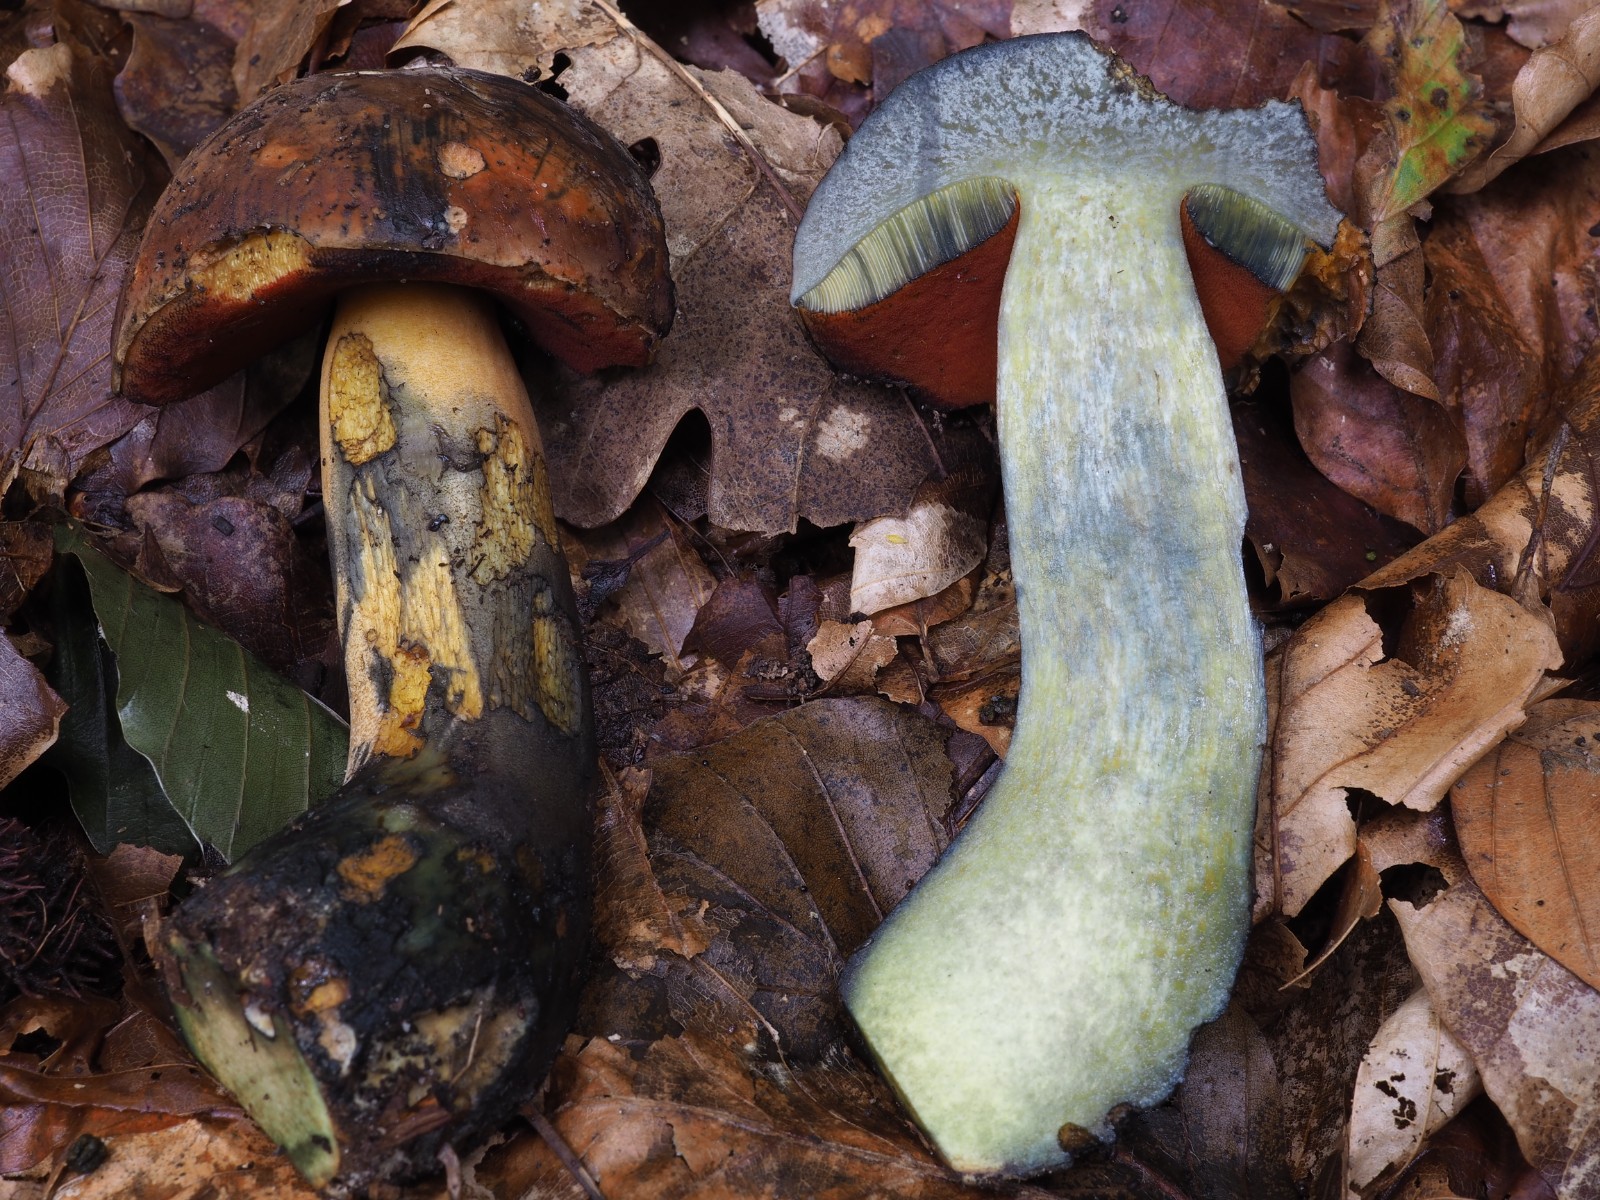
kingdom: Fungi
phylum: Basidiomycota
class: Agaricomycetes
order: Boletales
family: Boletaceae
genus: Neoboletus
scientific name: Neoboletus erythropus
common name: punktstokket indigorørhat
